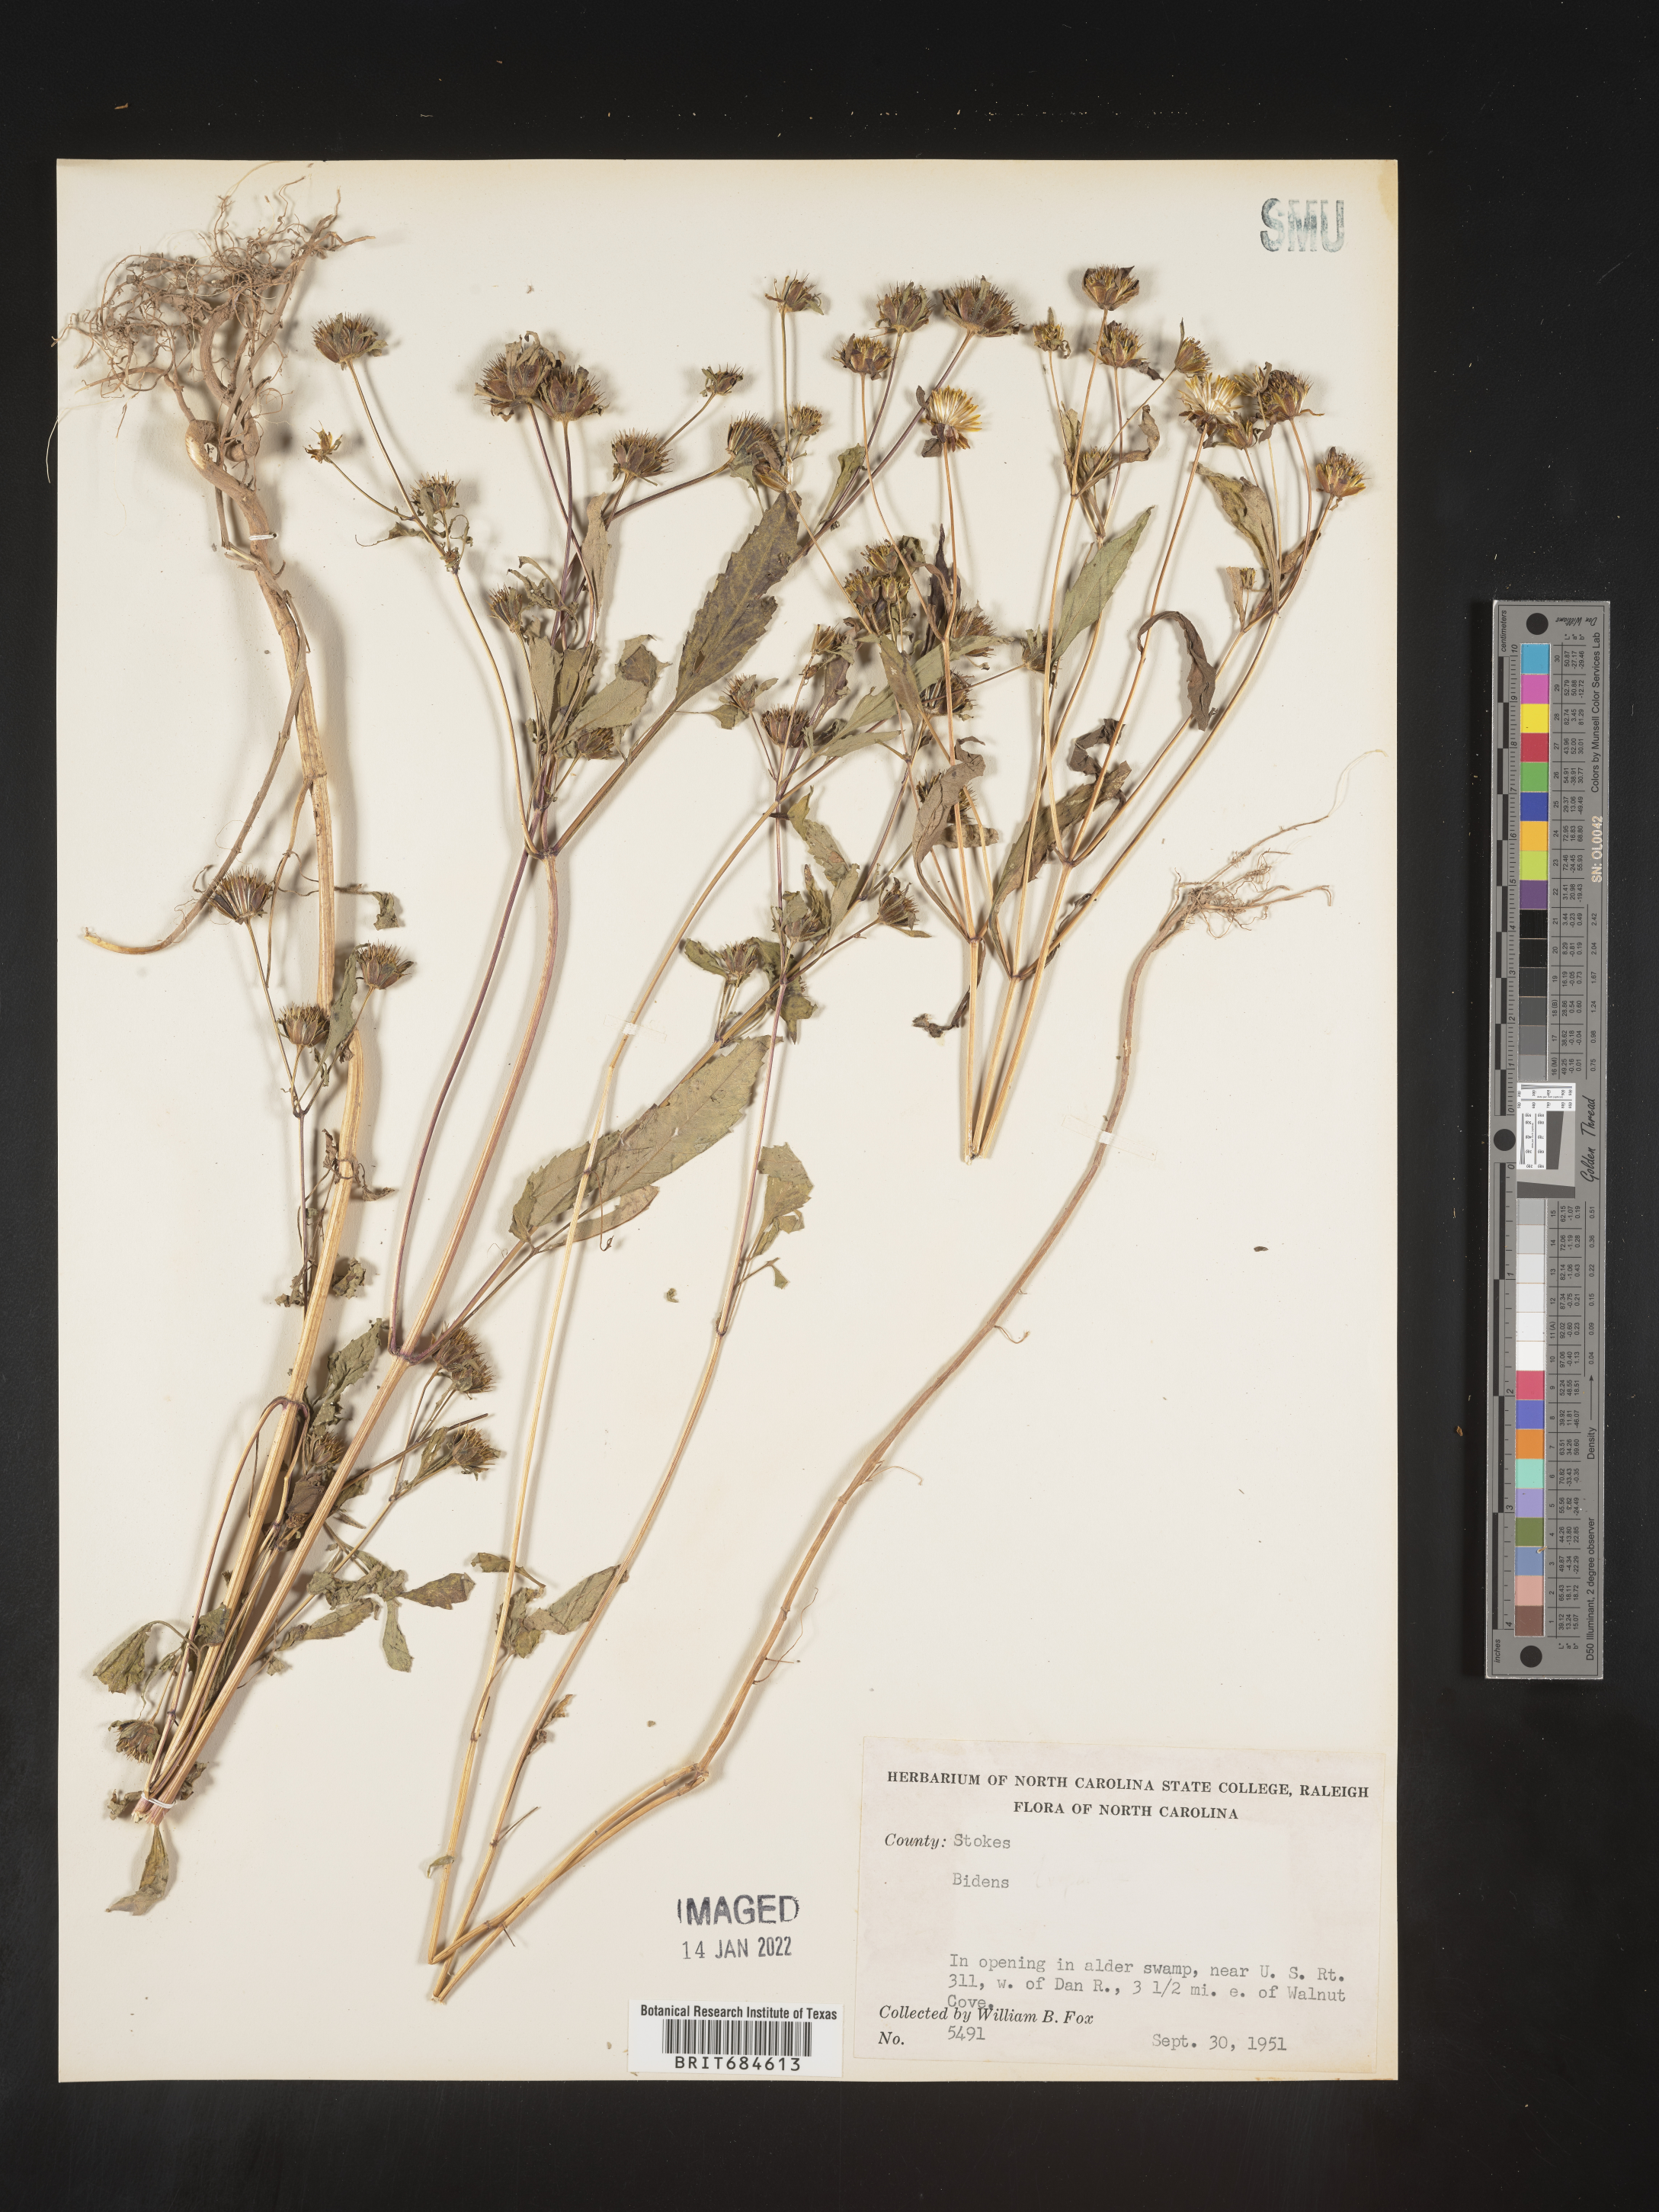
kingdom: Plantae
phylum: Tracheophyta
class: Magnoliopsida
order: Asterales
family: Asteraceae
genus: Bidens
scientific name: Bidens
